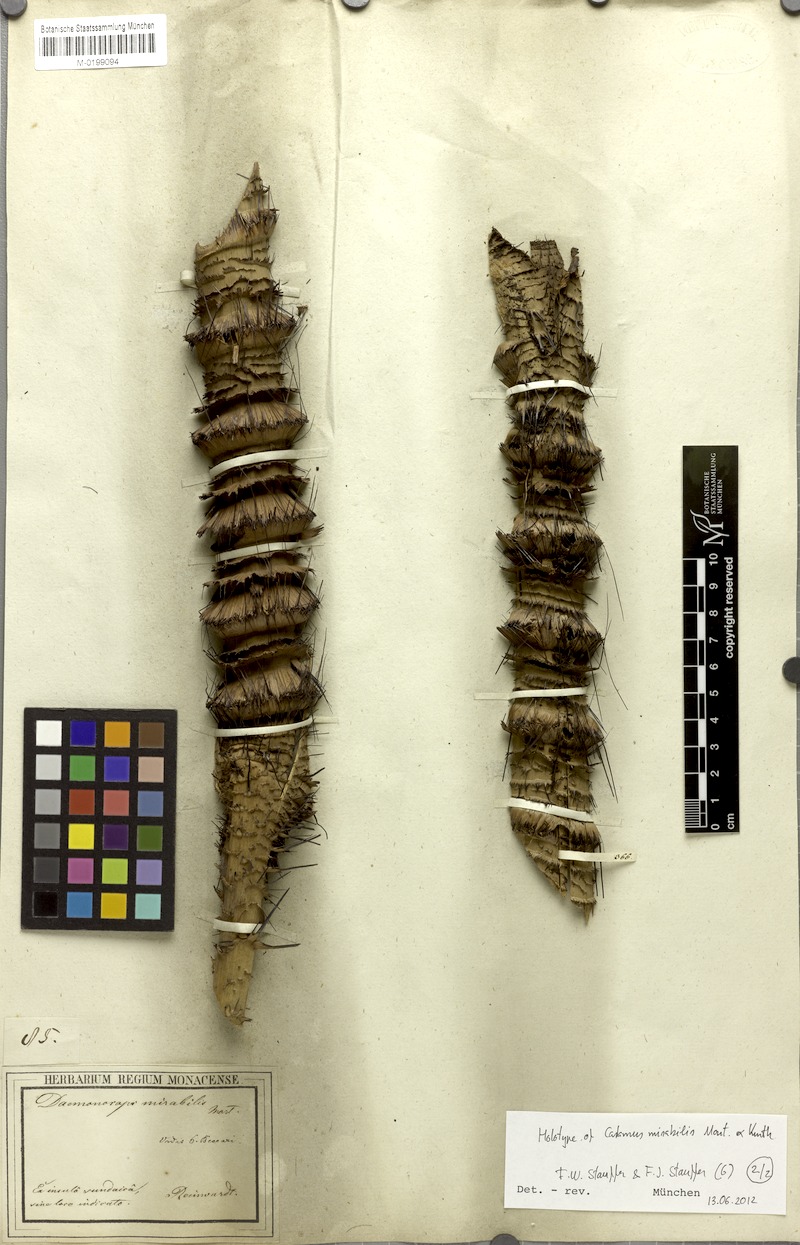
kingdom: Plantae
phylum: Tracheophyta
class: Liliopsida
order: Arecales
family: Arecaceae
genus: Calamus
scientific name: Calamus mirabilis
